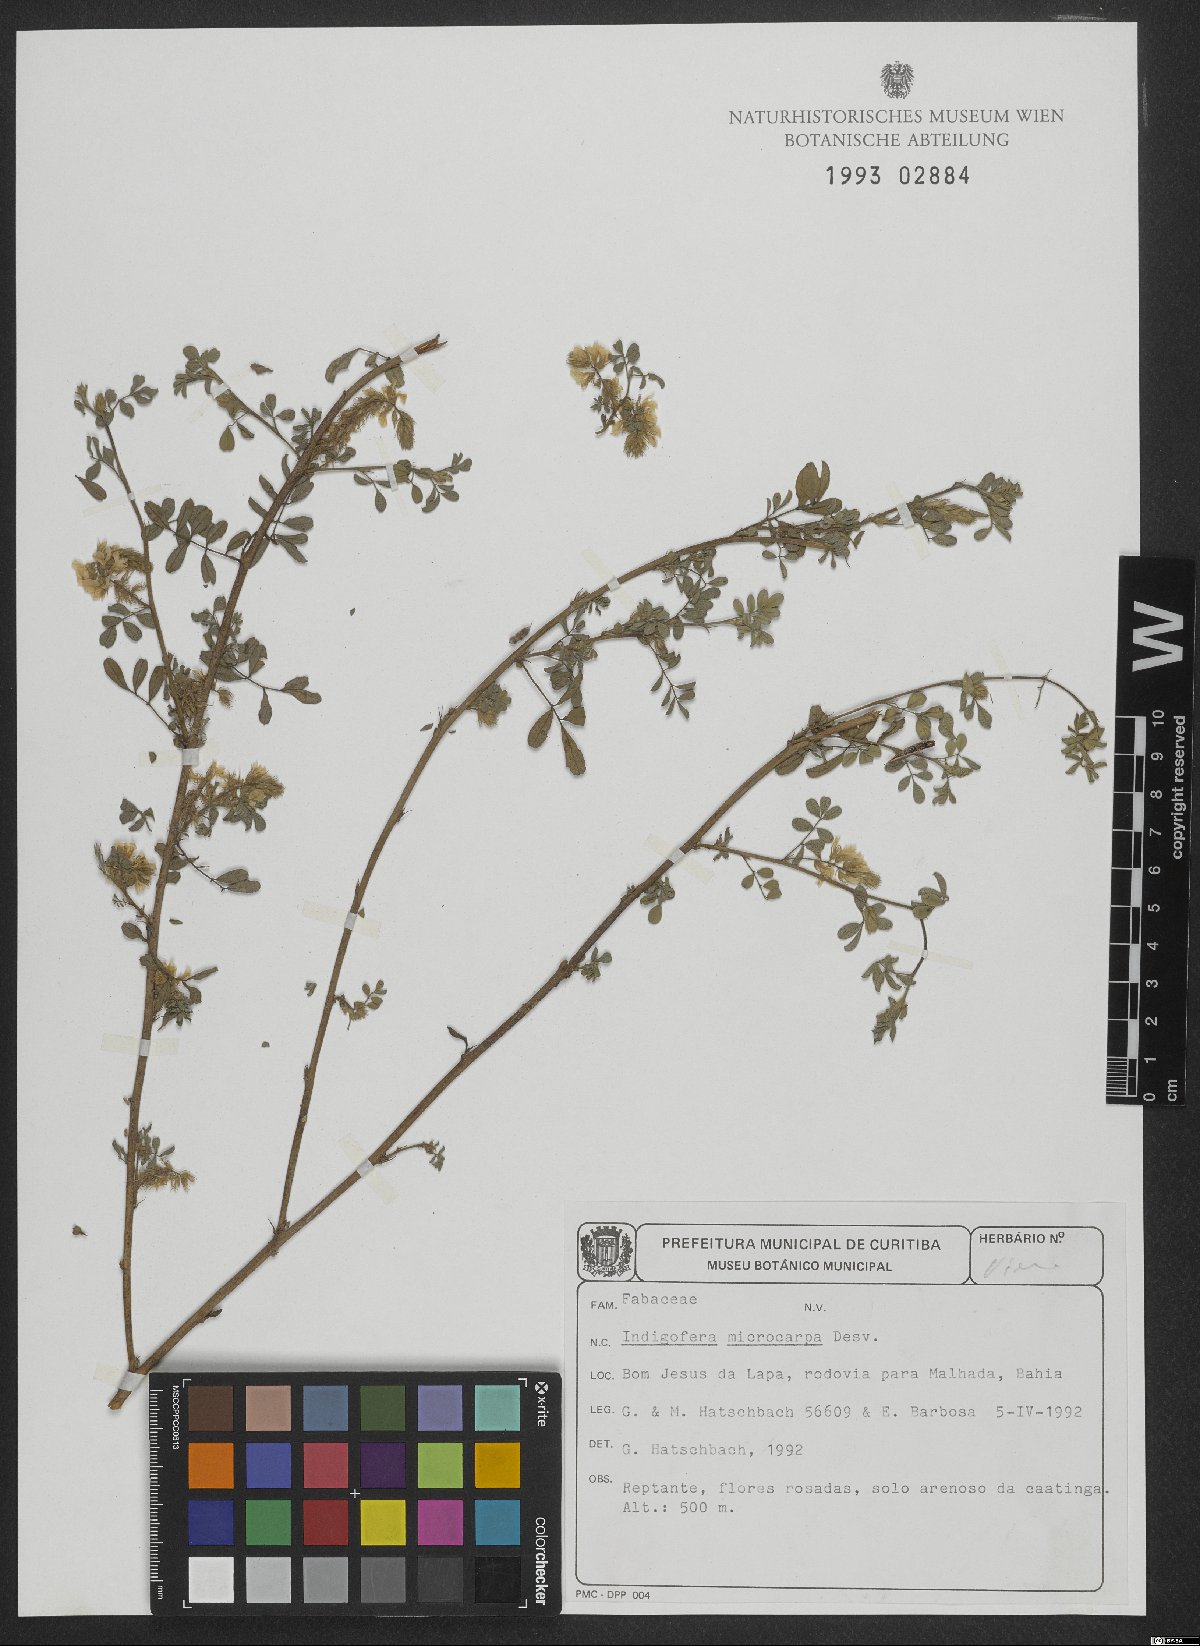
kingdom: Plantae
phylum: Tracheophyta
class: Magnoliopsida
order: Fabales
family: Fabaceae
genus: Indigofera
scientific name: Indigofera microcarpa
